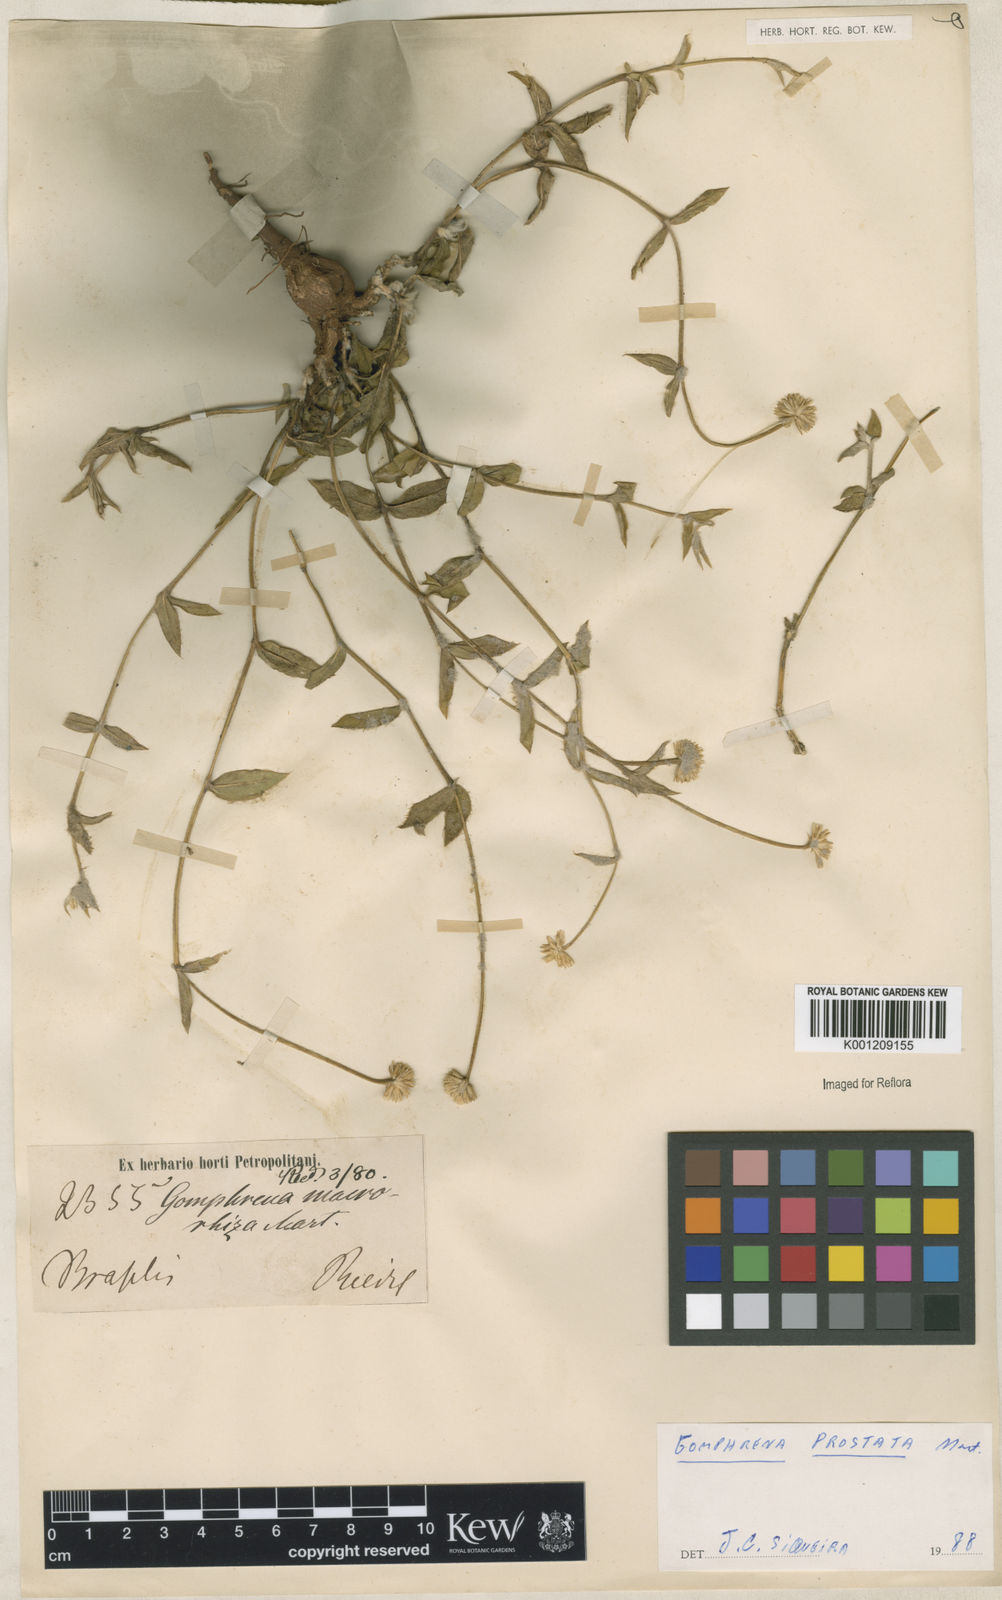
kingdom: Plantae
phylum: Tracheophyta
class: Magnoliopsida
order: Caryophyllales
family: Amaranthaceae
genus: Gomphrena
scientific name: Gomphrena macrorhiza
